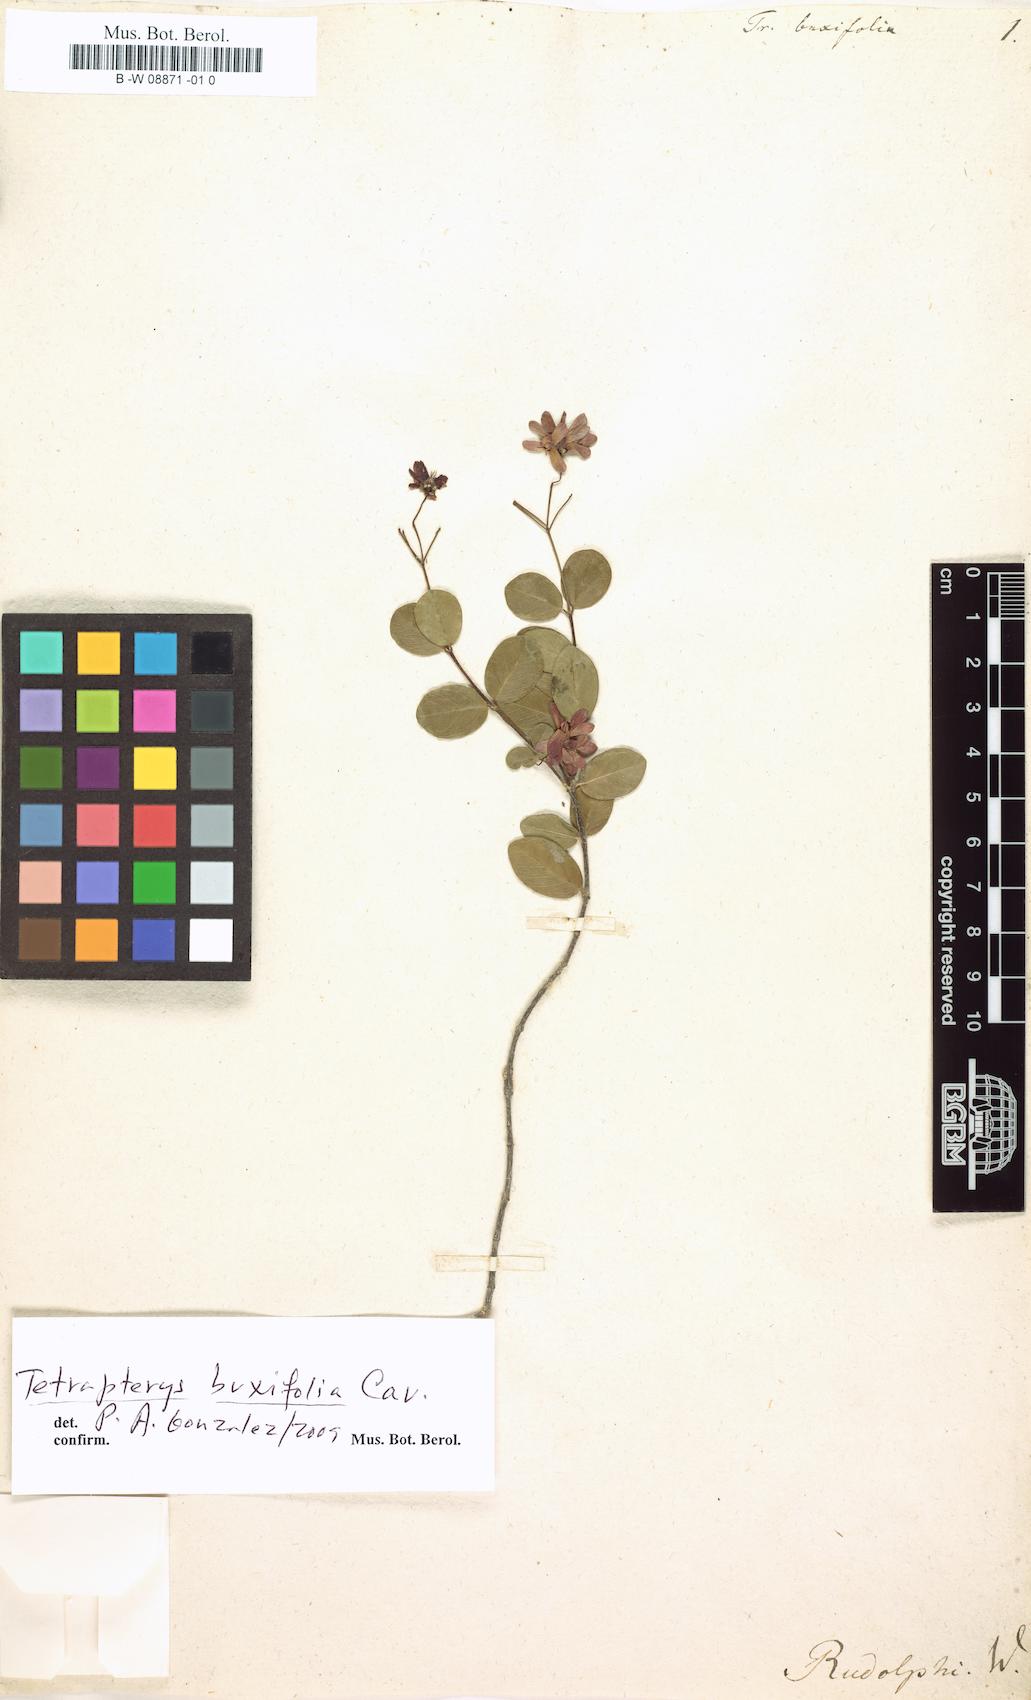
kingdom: Plantae
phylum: Tracheophyta
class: Magnoliopsida
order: Malpighiales
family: Malpighiaceae
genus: Tetrapterys
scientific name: Tetrapterys buxifolia
